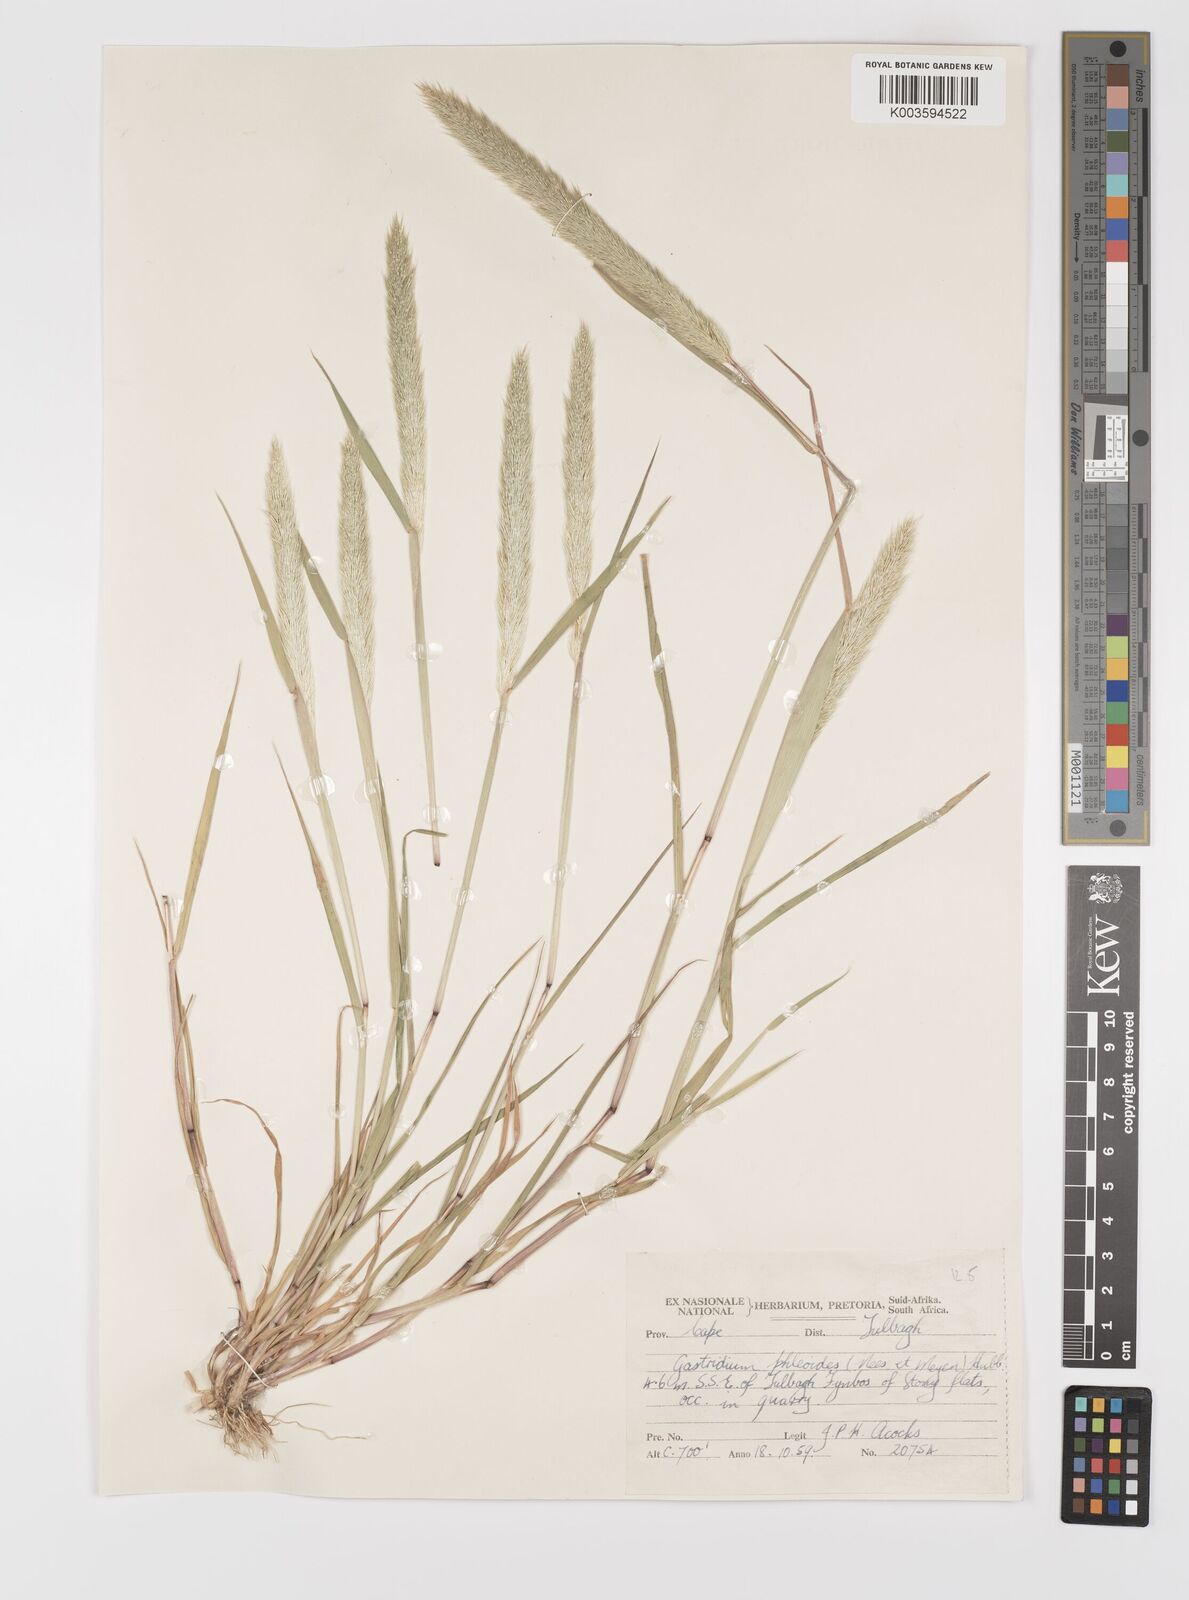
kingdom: Plantae
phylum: Tracheophyta
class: Liliopsida
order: Poales
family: Poaceae
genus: Gastridium
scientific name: Gastridium phleoides
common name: Nit grass
